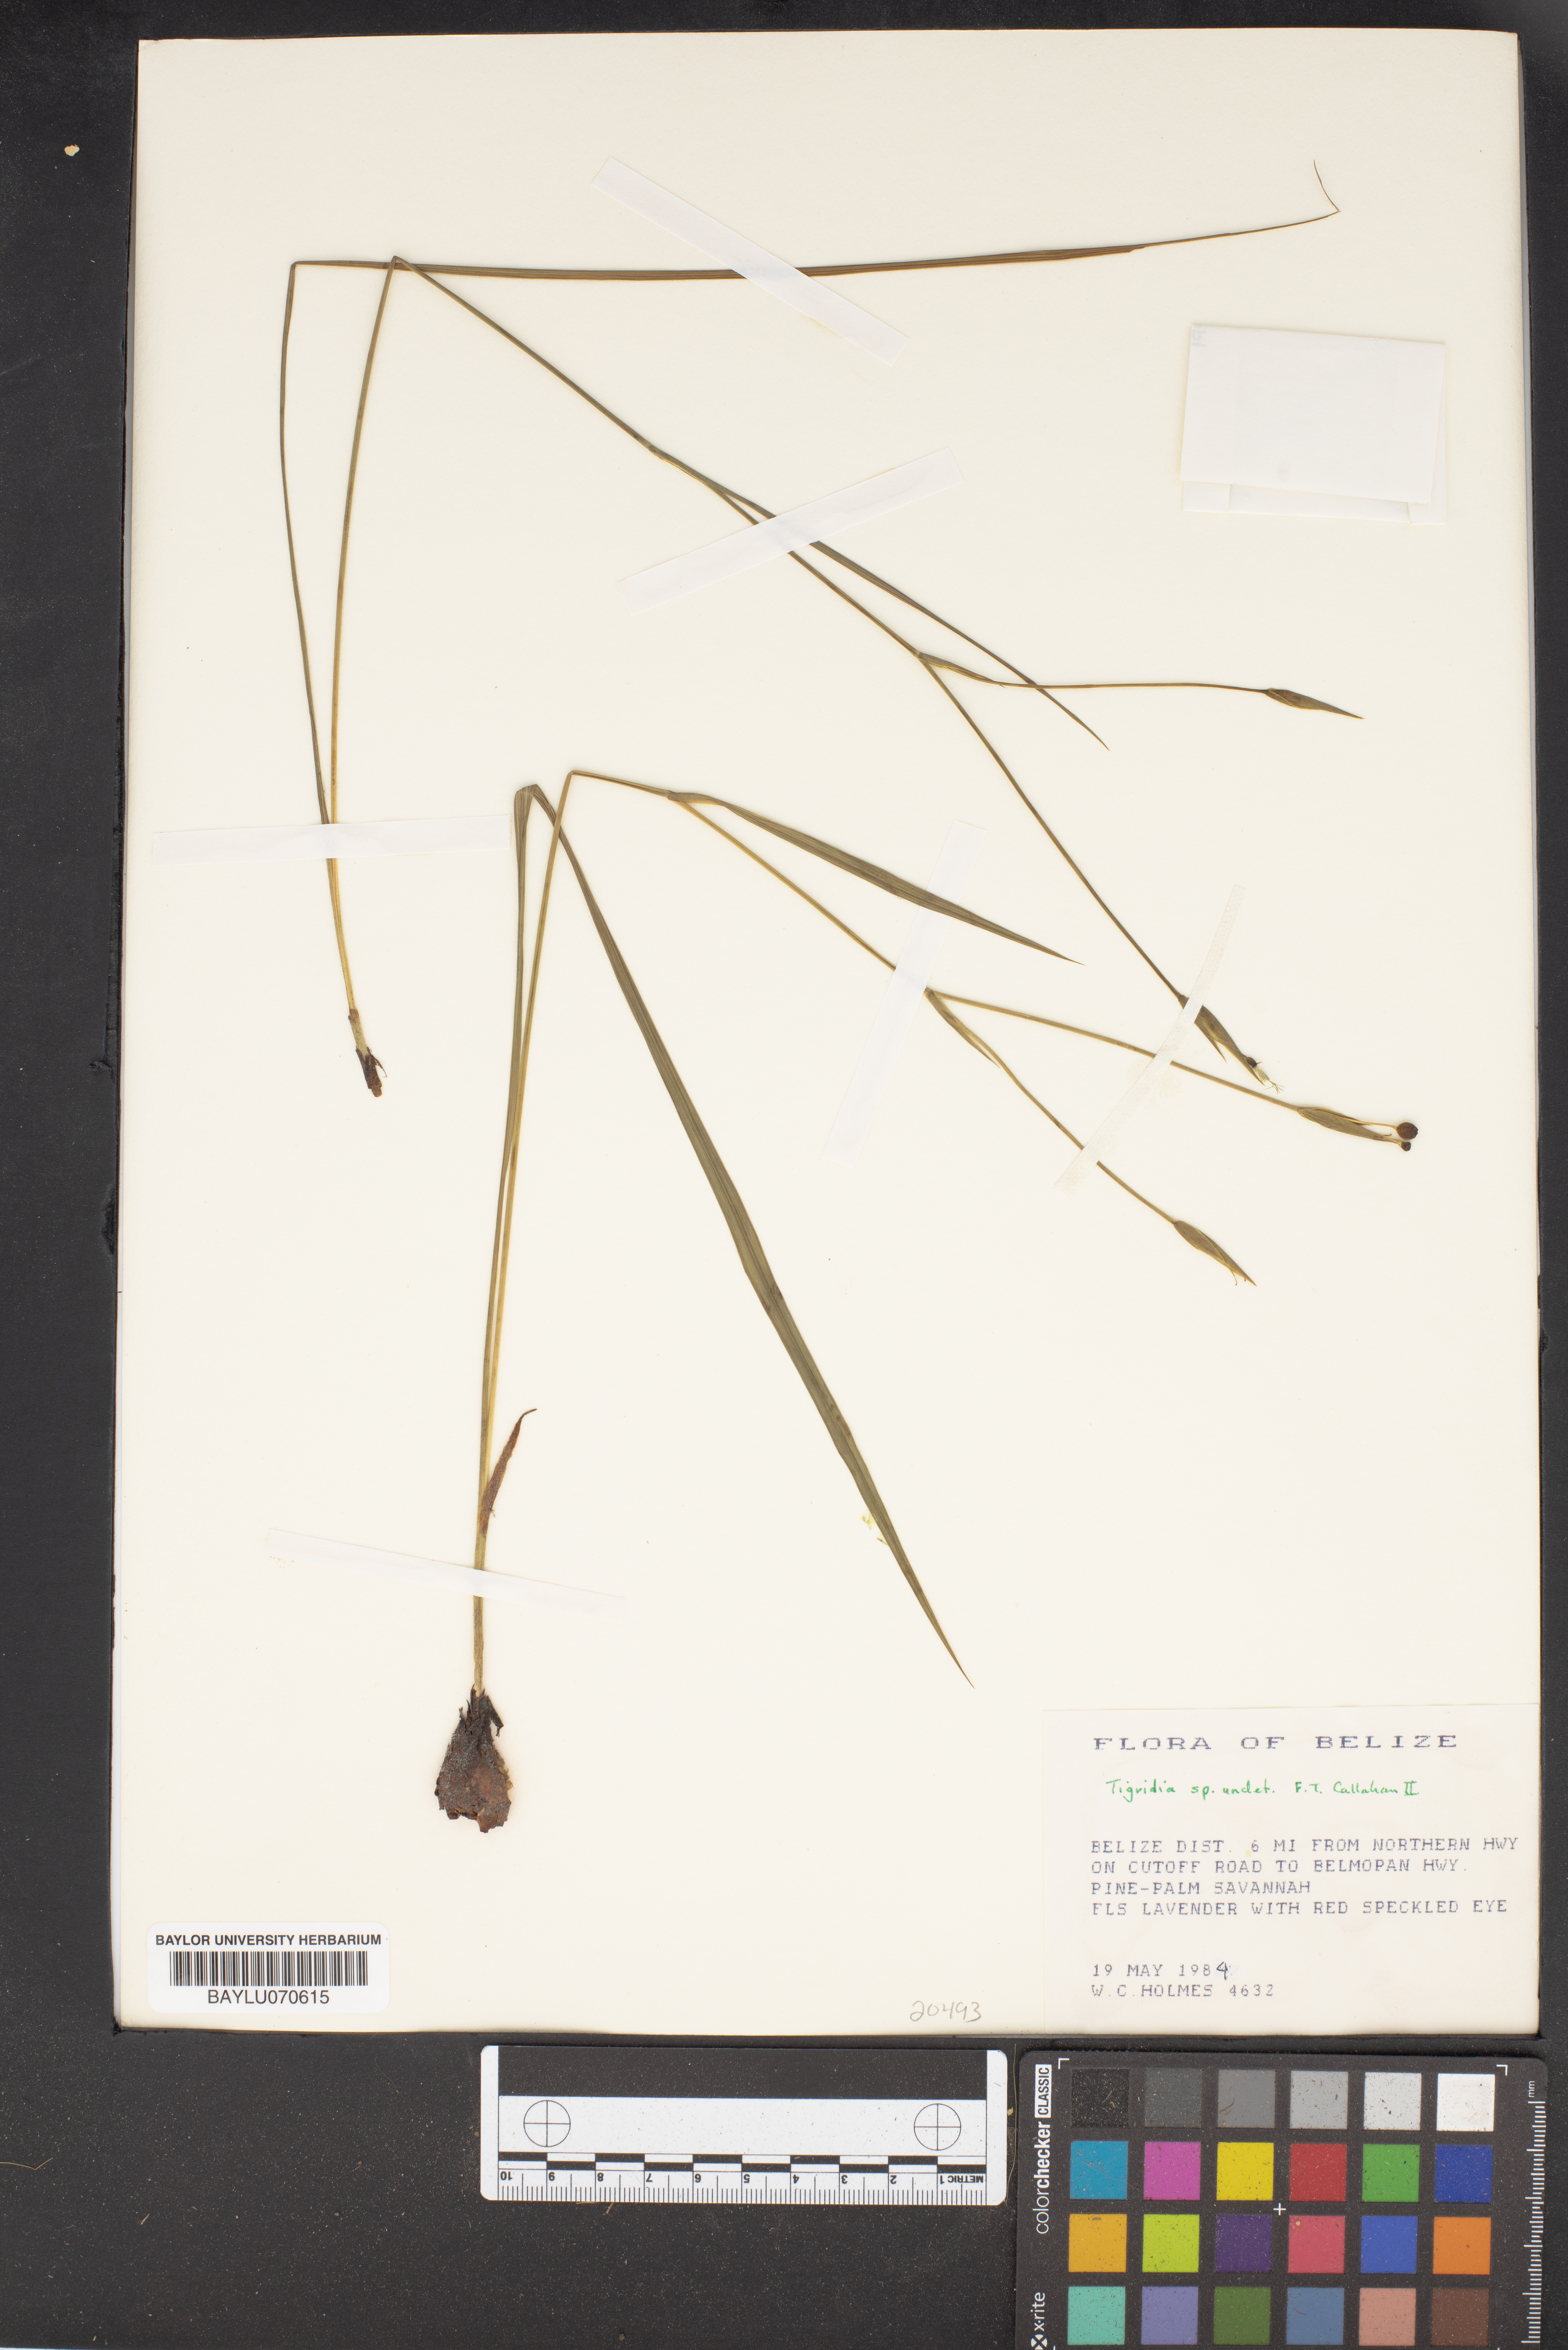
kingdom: Plantae
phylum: Tracheophyta
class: Liliopsida
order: Asparagales
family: Iridaceae
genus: Tigridia
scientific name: Tigridia
